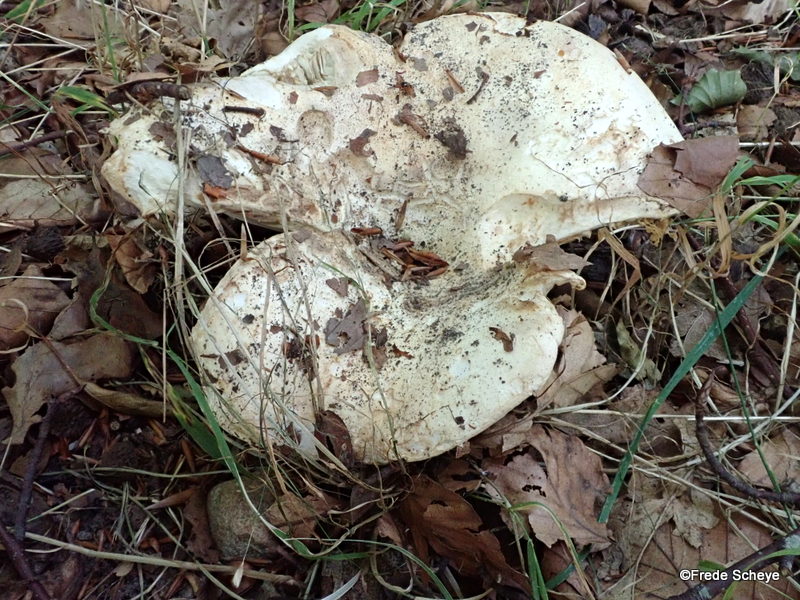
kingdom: Fungi
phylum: Basidiomycota
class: Agaricomycetes
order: Russulales
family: Russulaceae
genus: Russula
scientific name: Russula chloroides
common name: grønhalset tragt-skørhat
